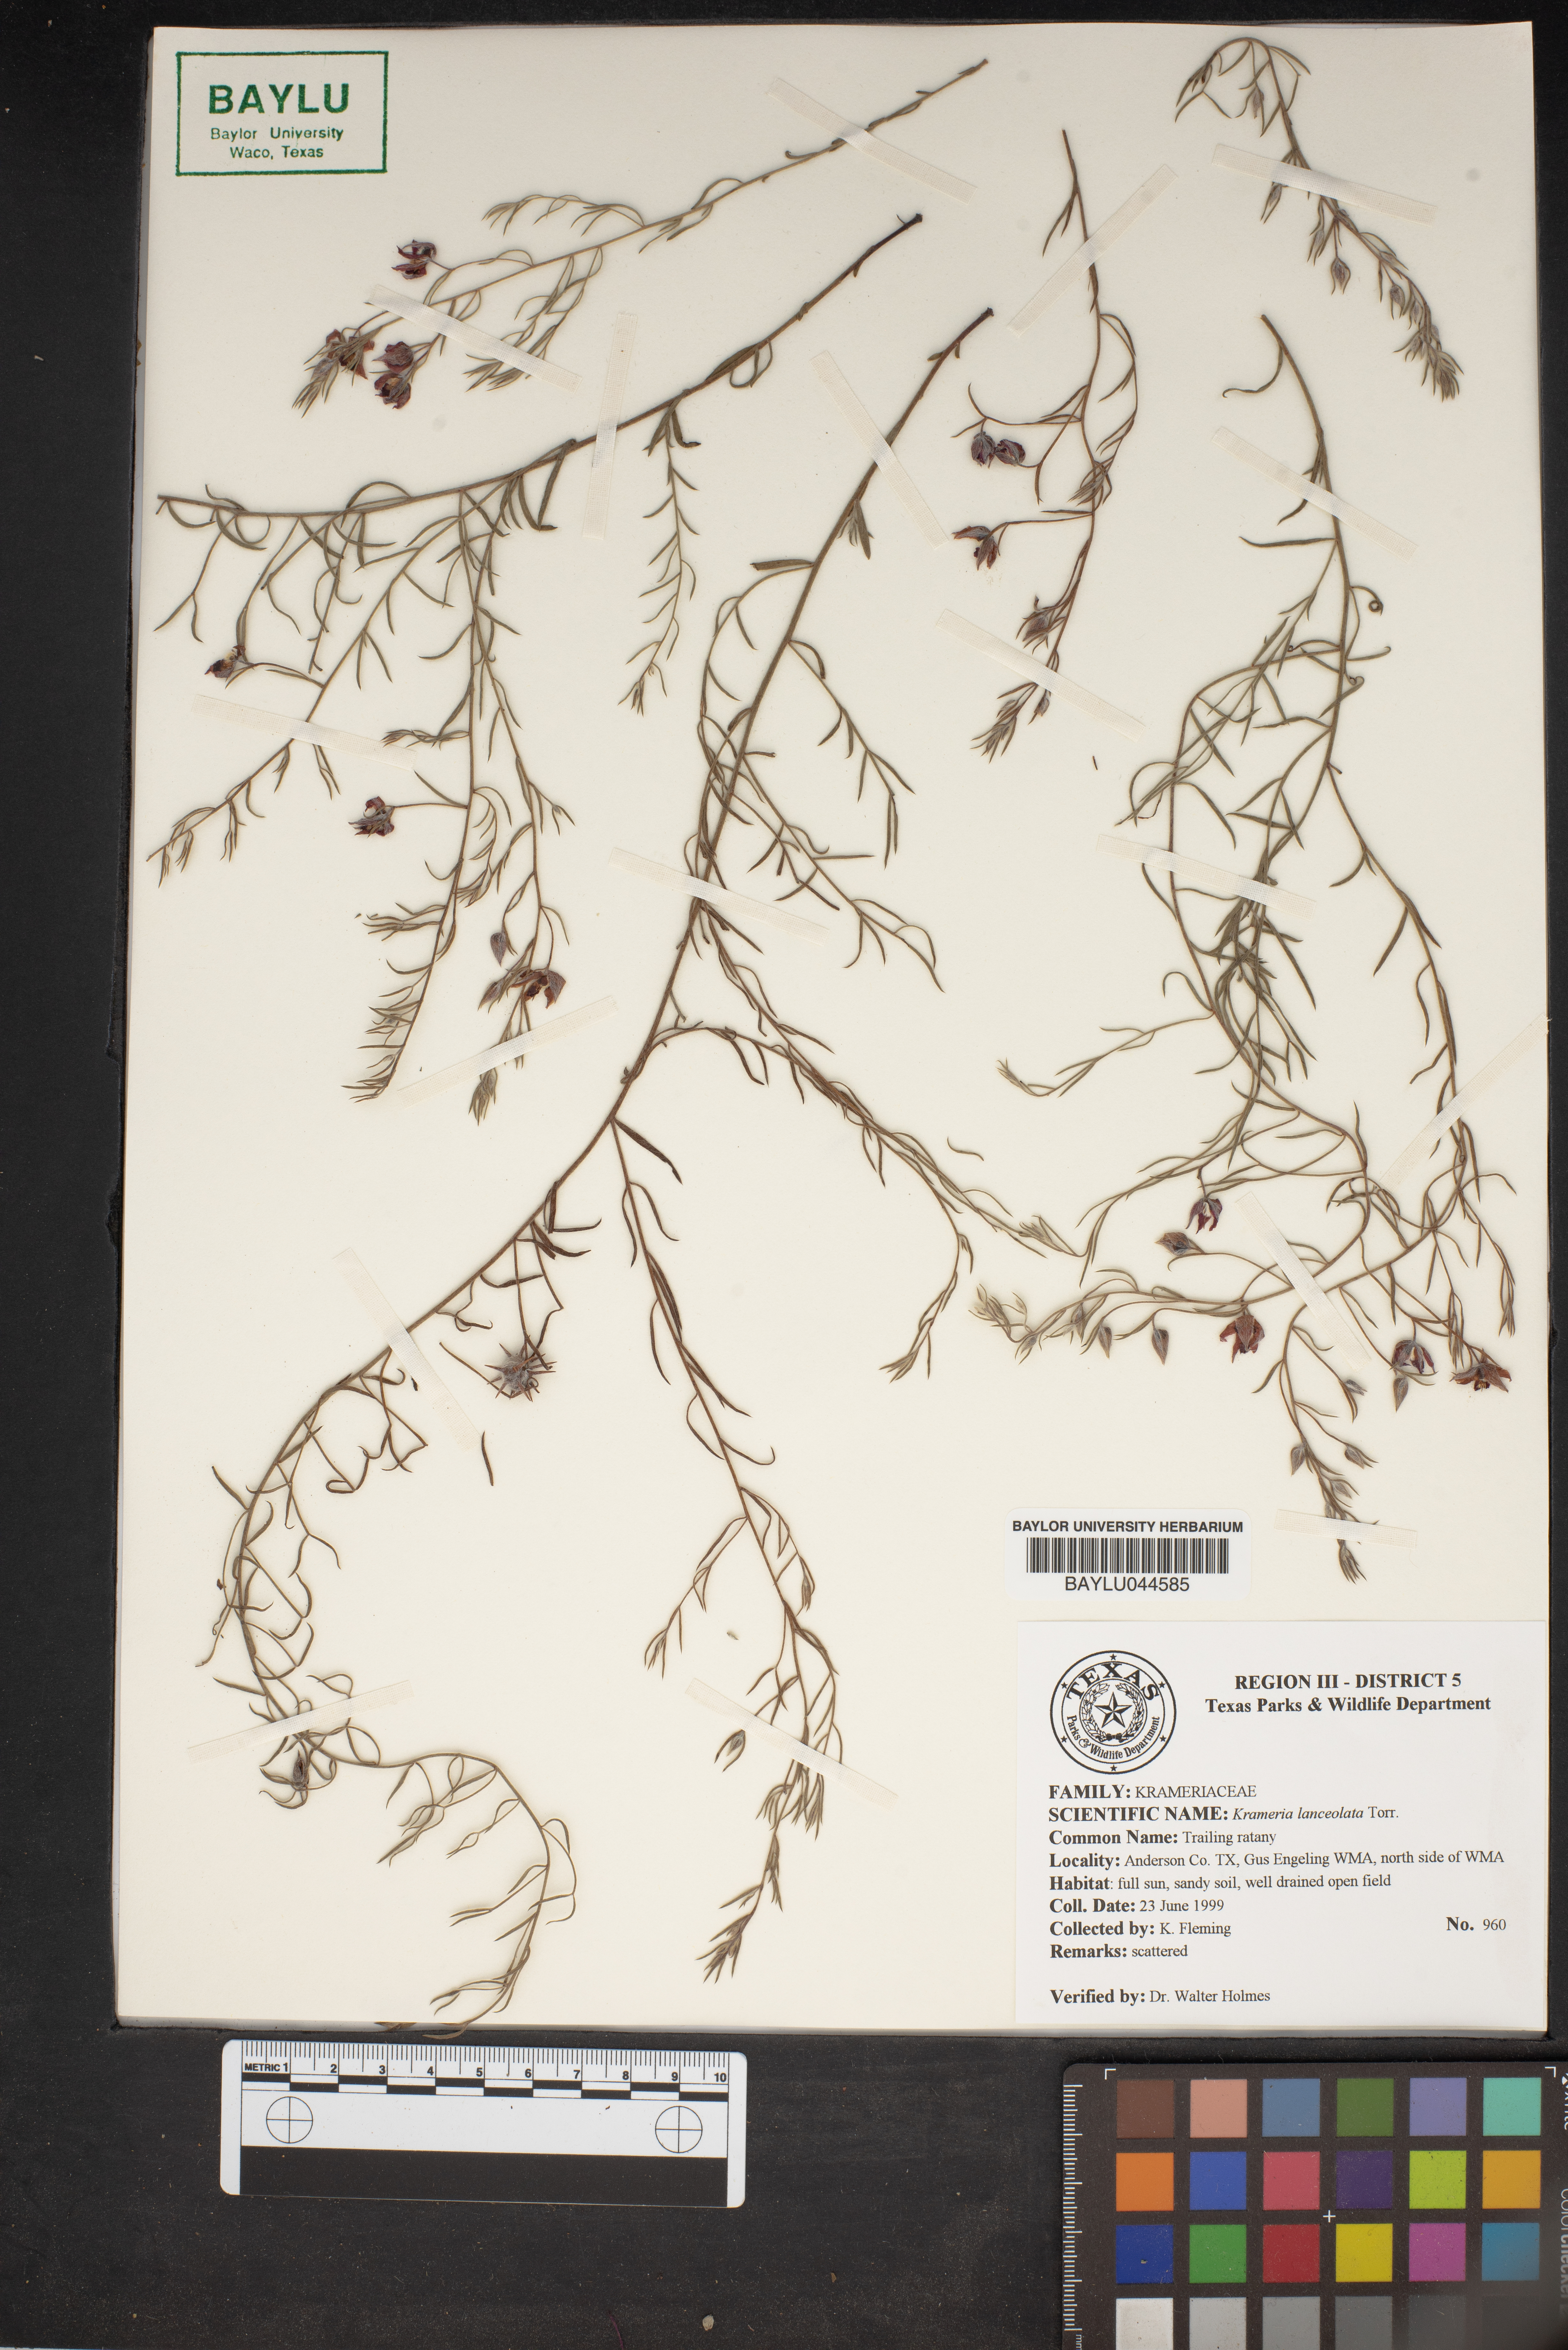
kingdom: Plantae
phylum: Tracheophyta
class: Magnoliopsida
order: Zygophyllales
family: Krameriaceae
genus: Krameria
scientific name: Krameria lanceolata
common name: Ratany
